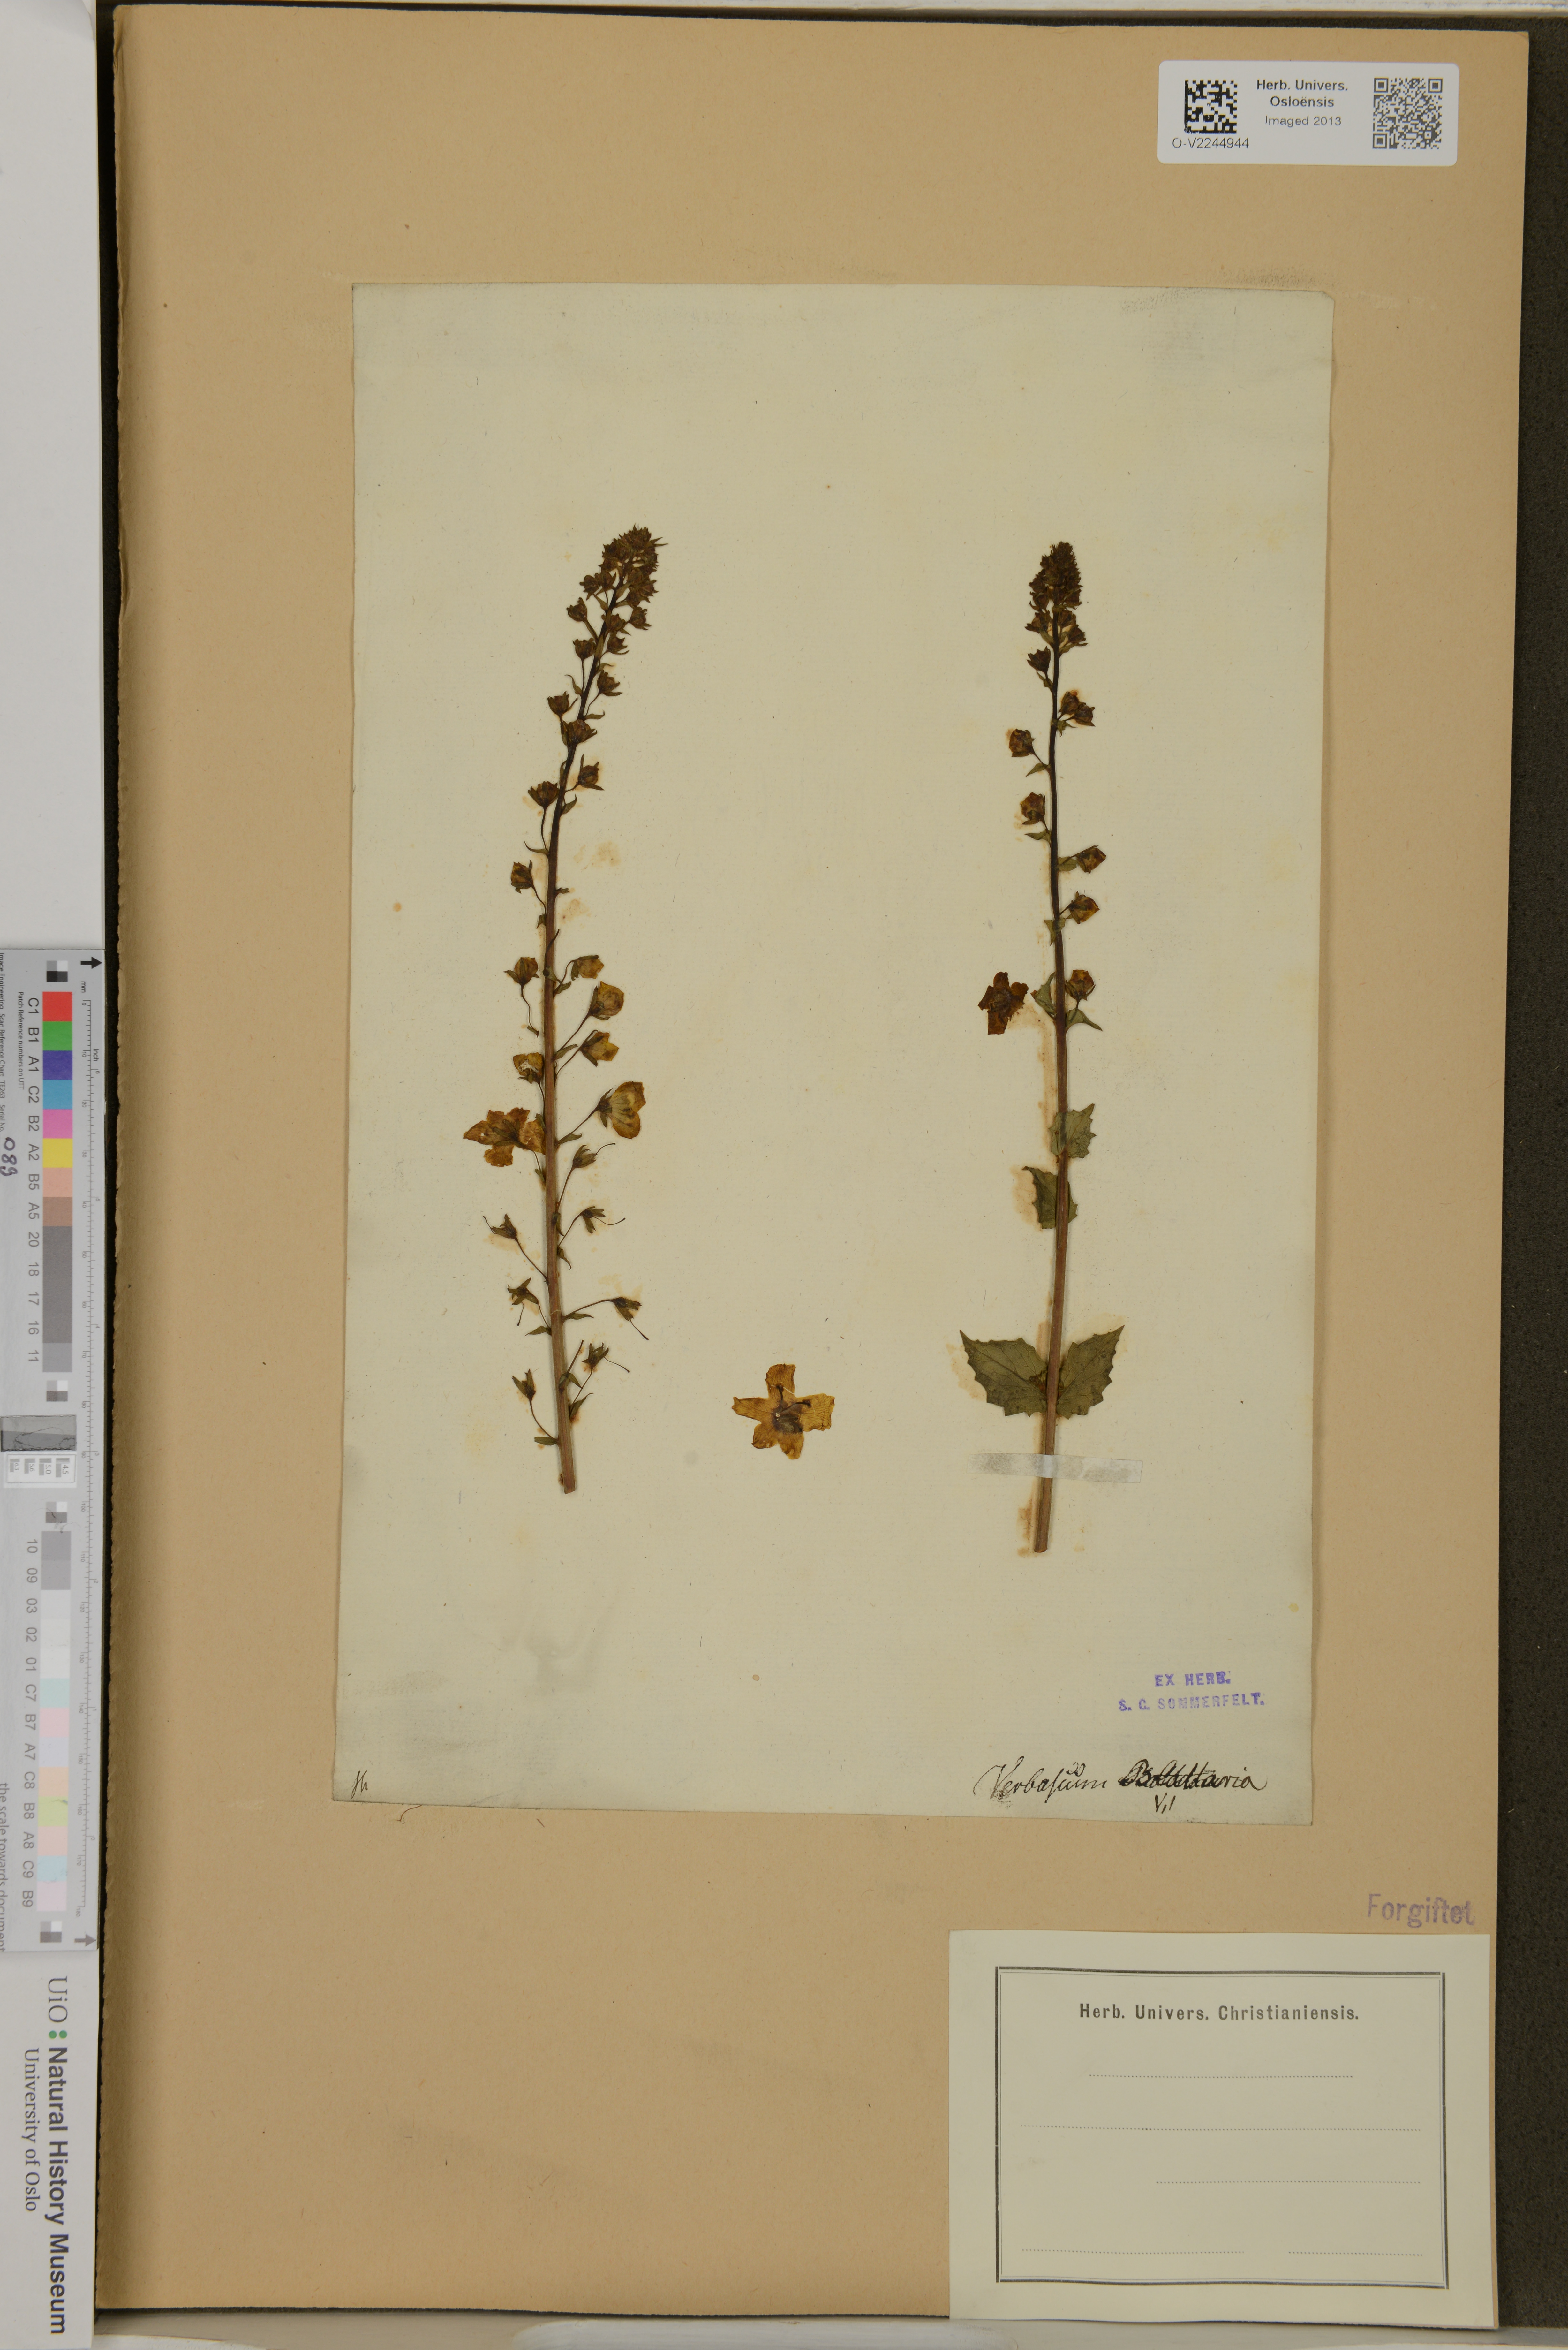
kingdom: Plantae
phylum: Tracheophyta
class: Magnoliopsida
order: Lamiales
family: Scrophulariaceae
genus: Verbascum
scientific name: Verbascum blattaria
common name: Moth mullein
